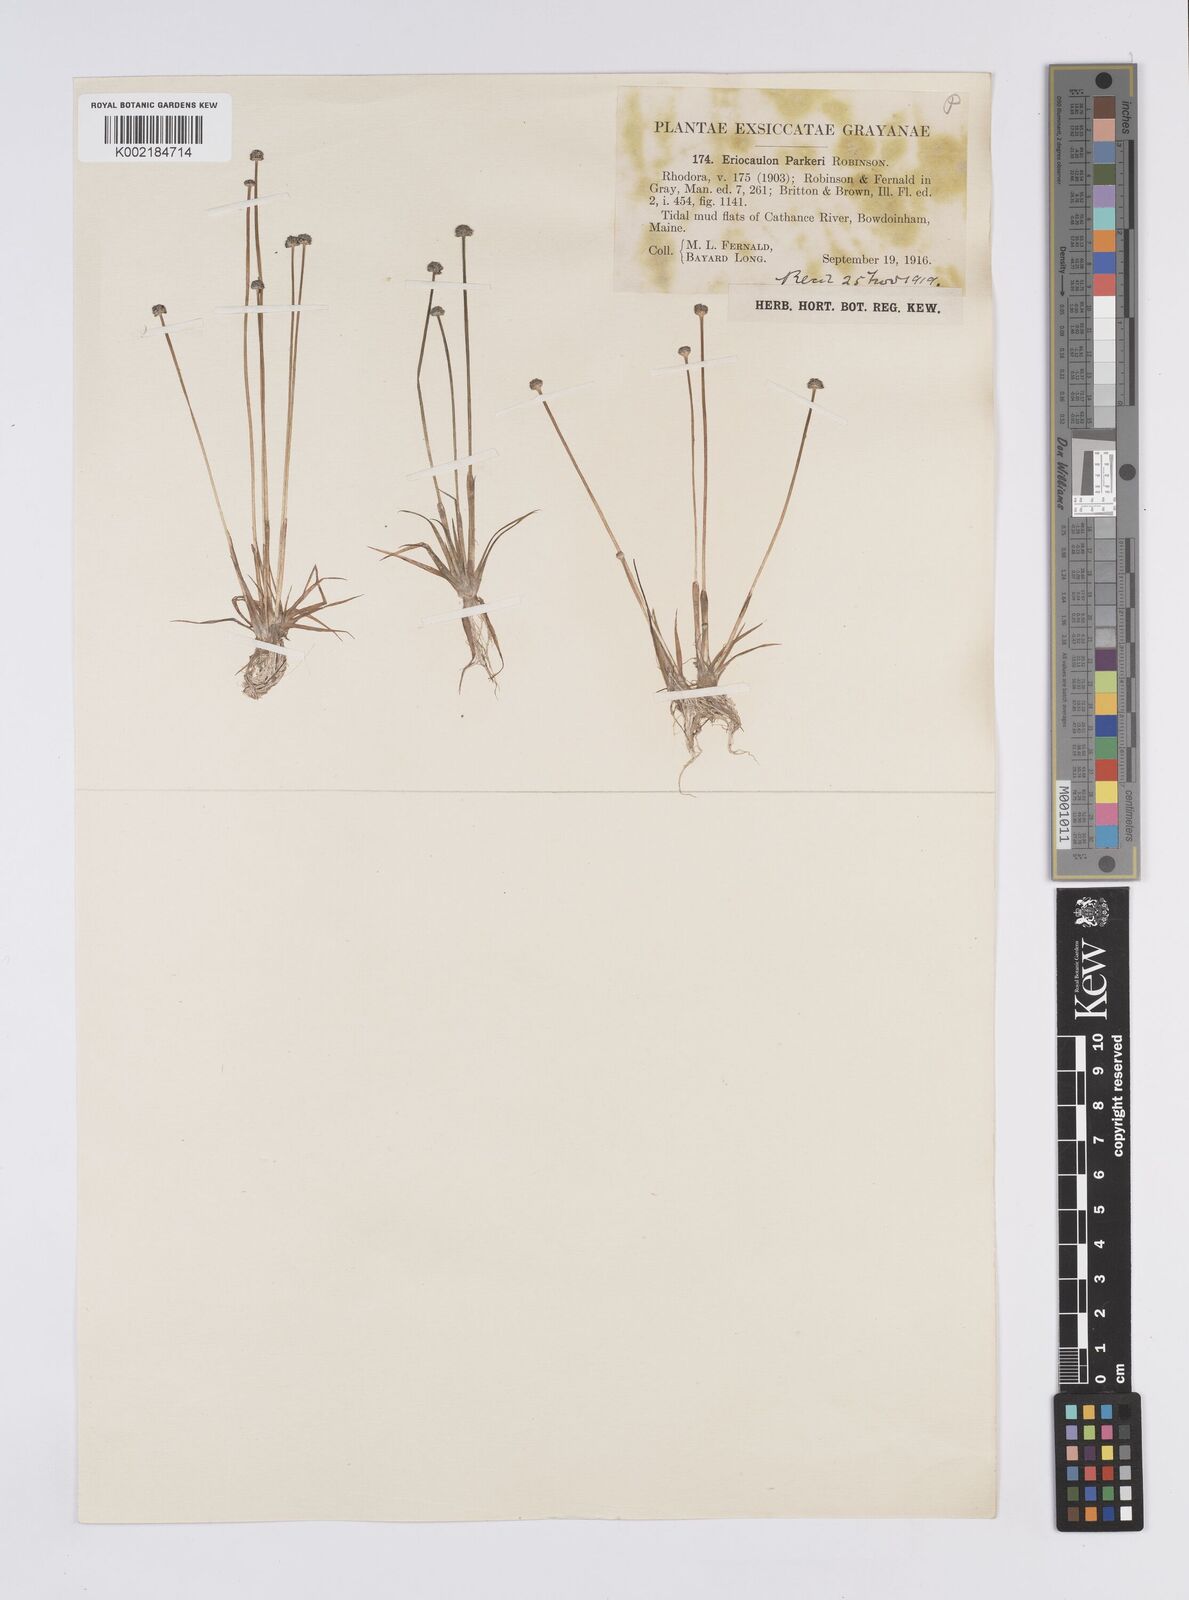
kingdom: Plantae
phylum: Tracheophyta
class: Liliopsida
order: Poales
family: Eriocaulaceae
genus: Eriocaulon
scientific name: Eriocaulon parkeri
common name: Parker's pipewort
